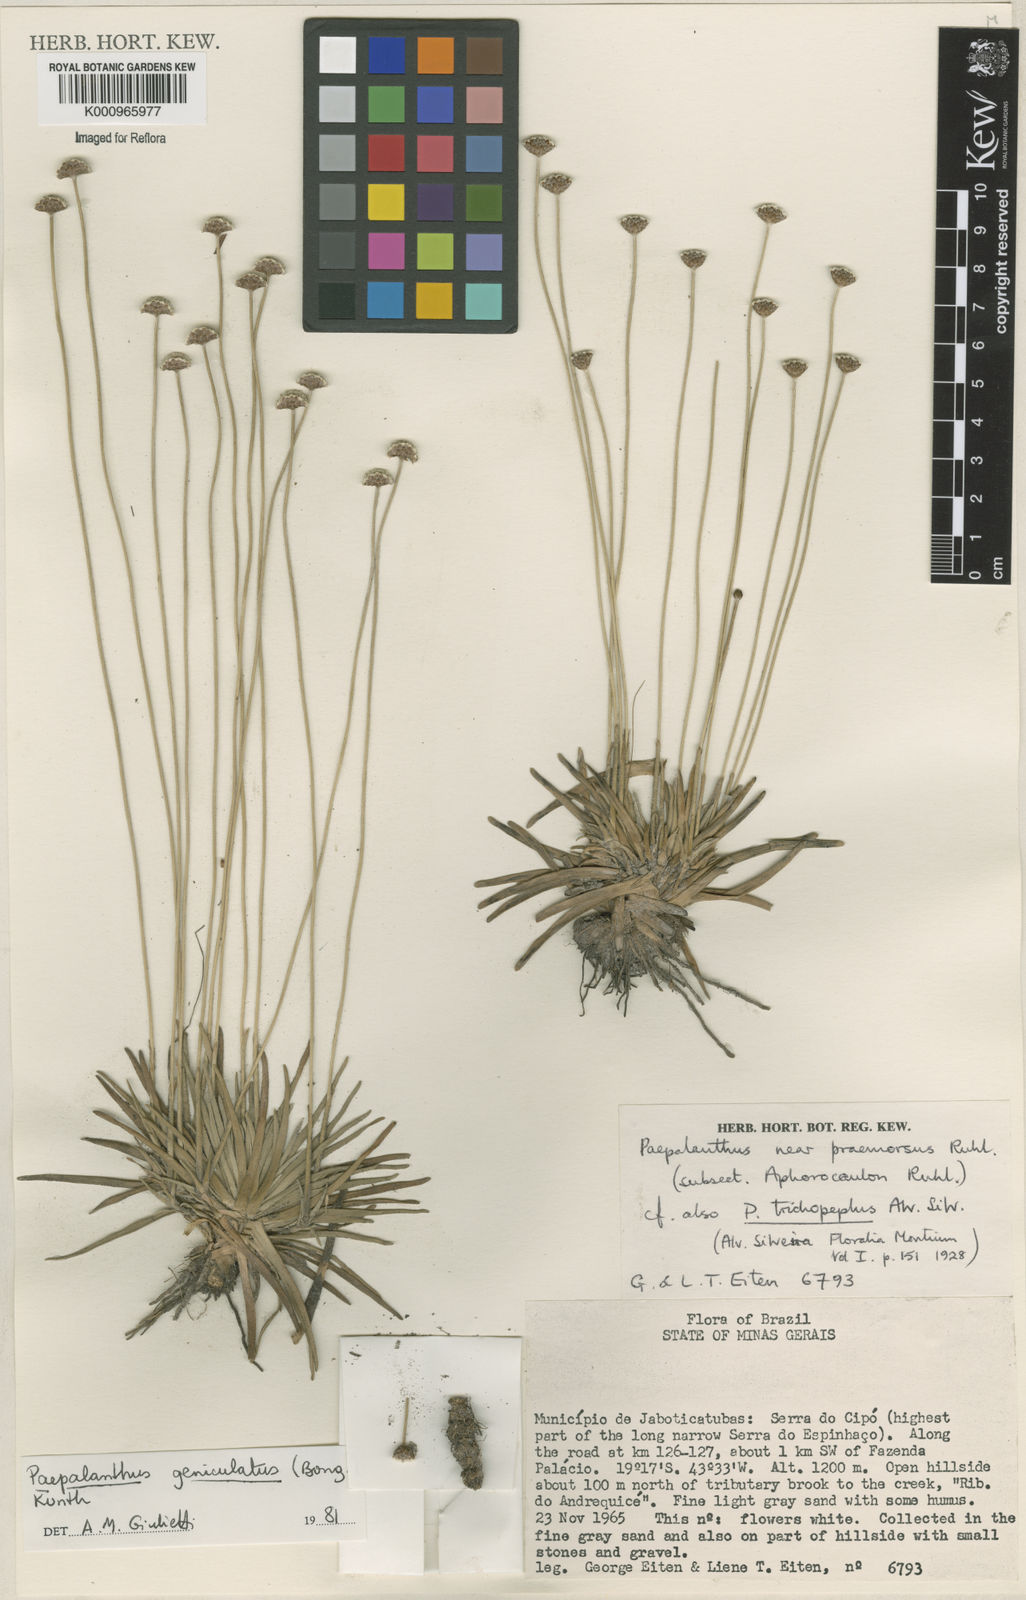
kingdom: Plantae
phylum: Tracheophyta
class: Liliopsida
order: Poales
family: Eriocaulaceae
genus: Paepalanthus
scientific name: Paepalanthus geniculatus
